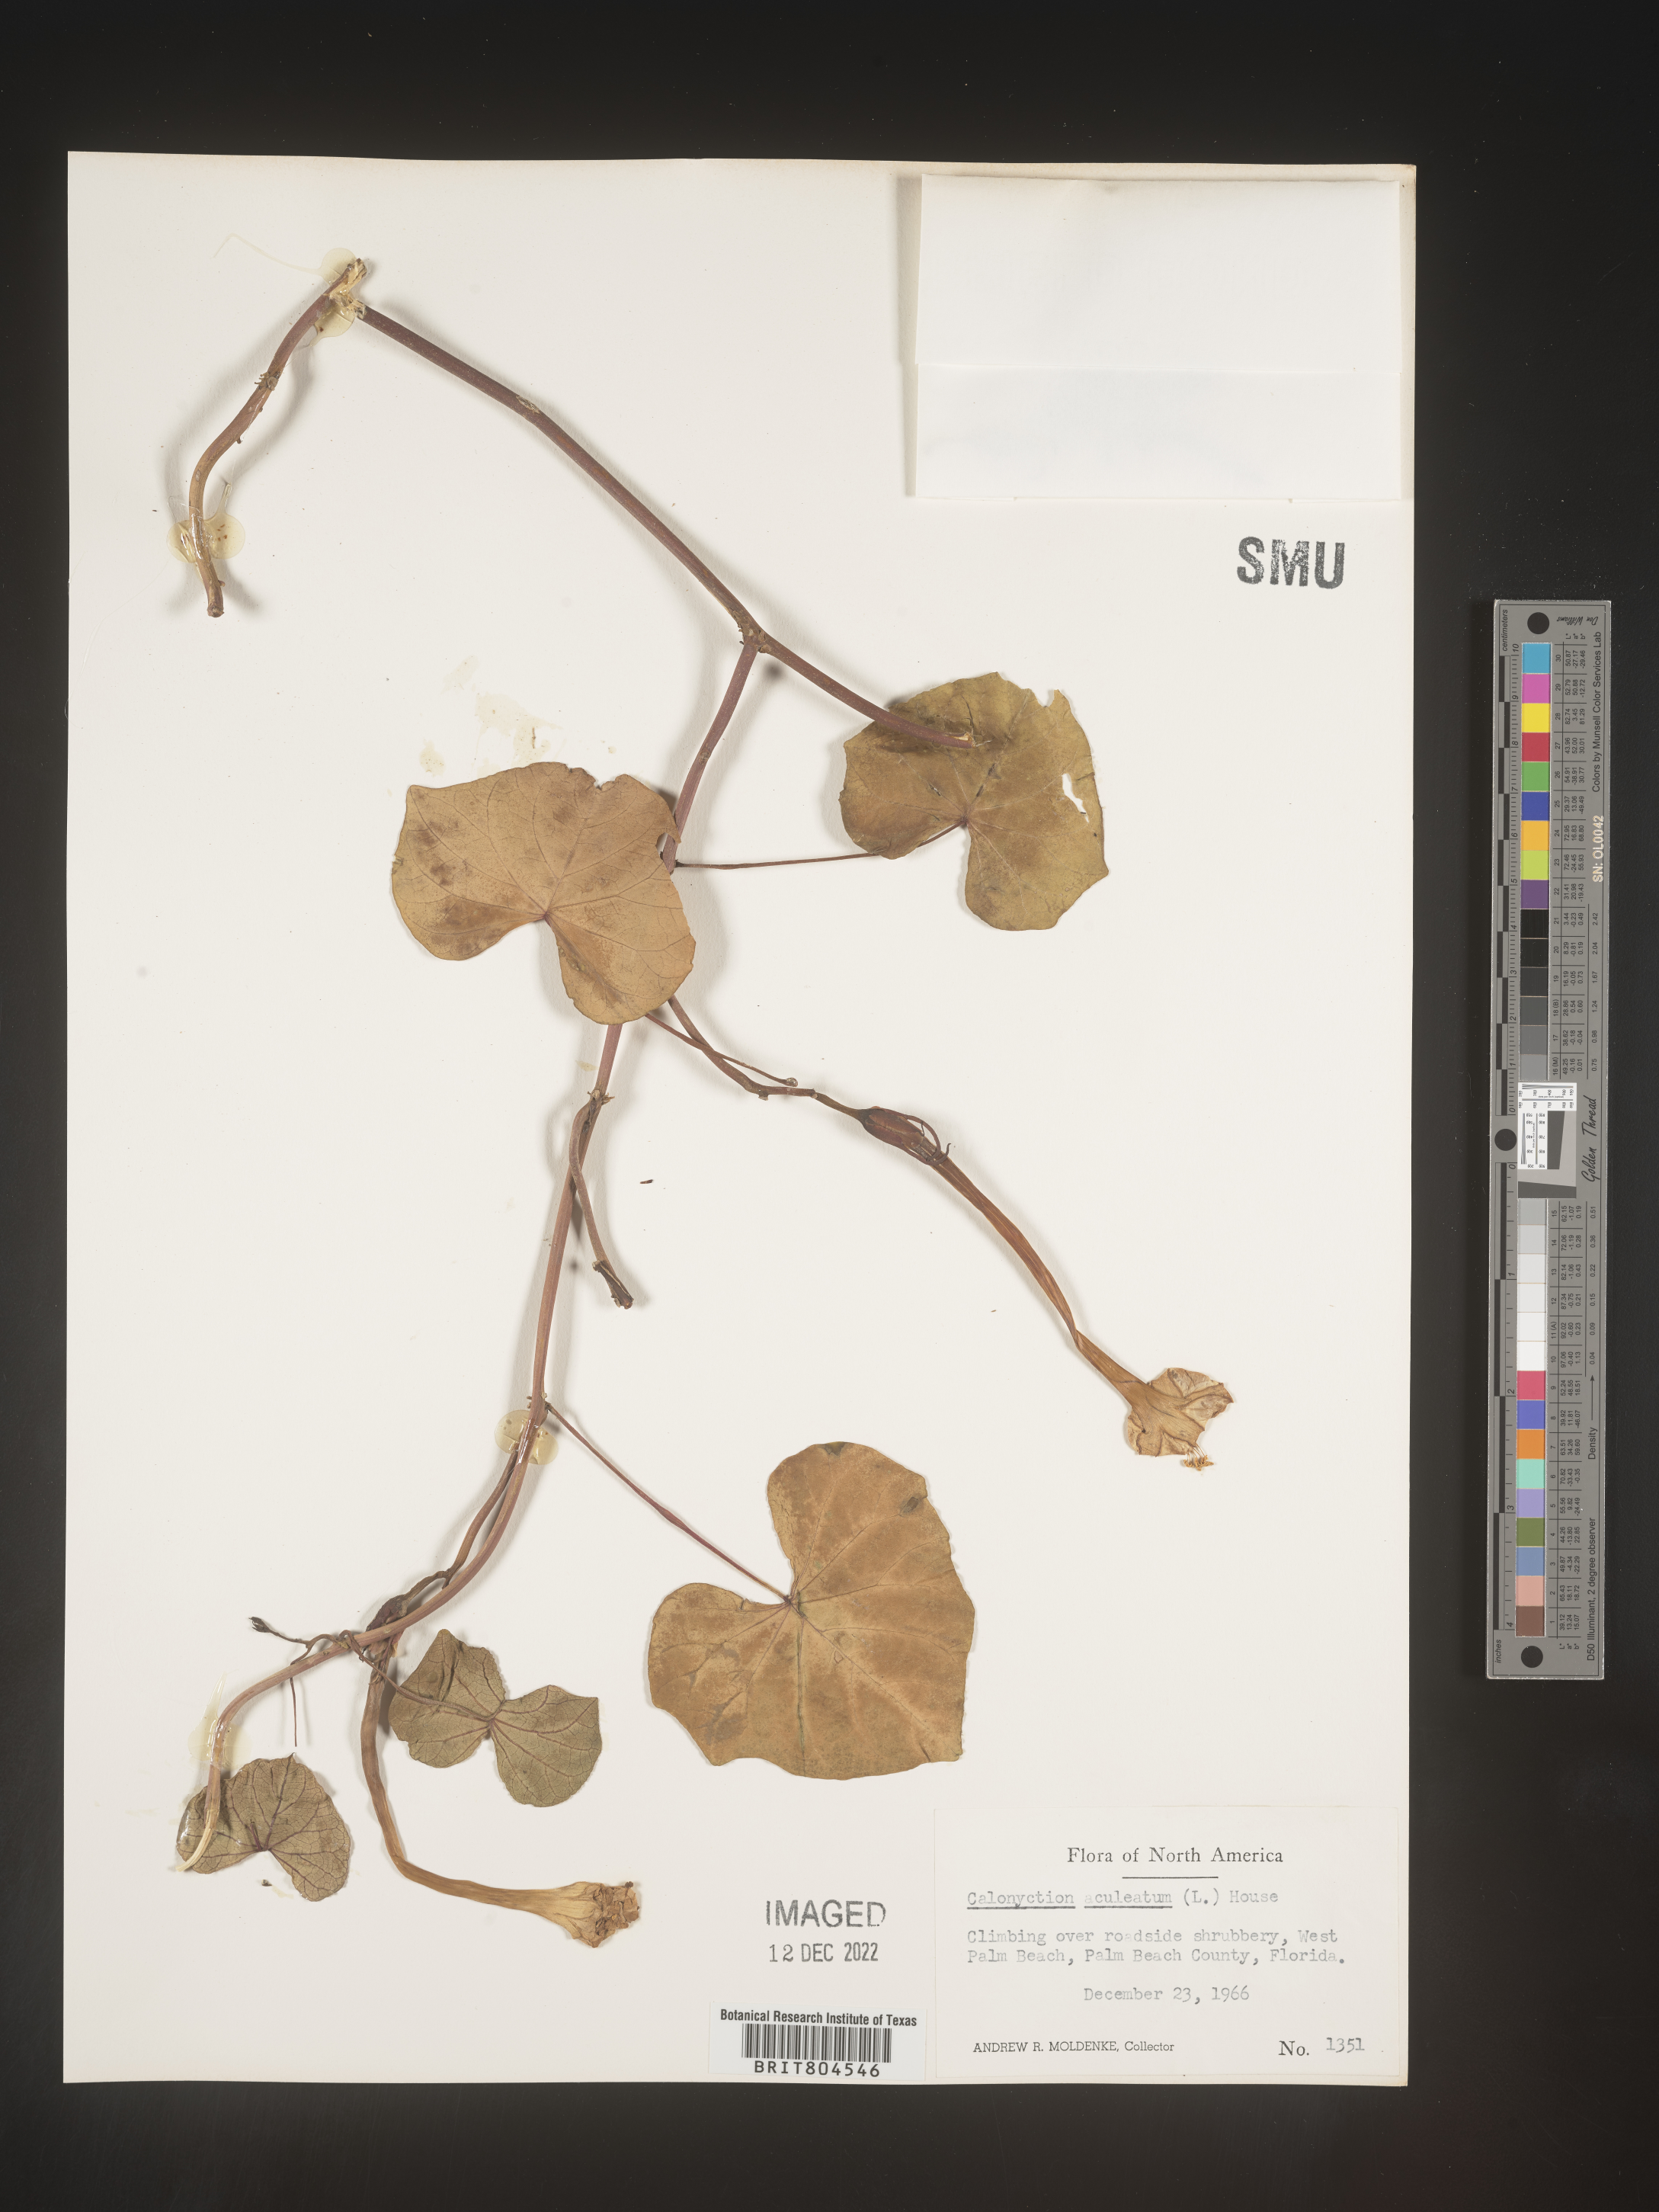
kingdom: Plantae
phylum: Tracheophyta
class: Magnoliopsida
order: Solanales
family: Convolvulaceae
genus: Ipomoea
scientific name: Ipomoea alba
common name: Moonflower
